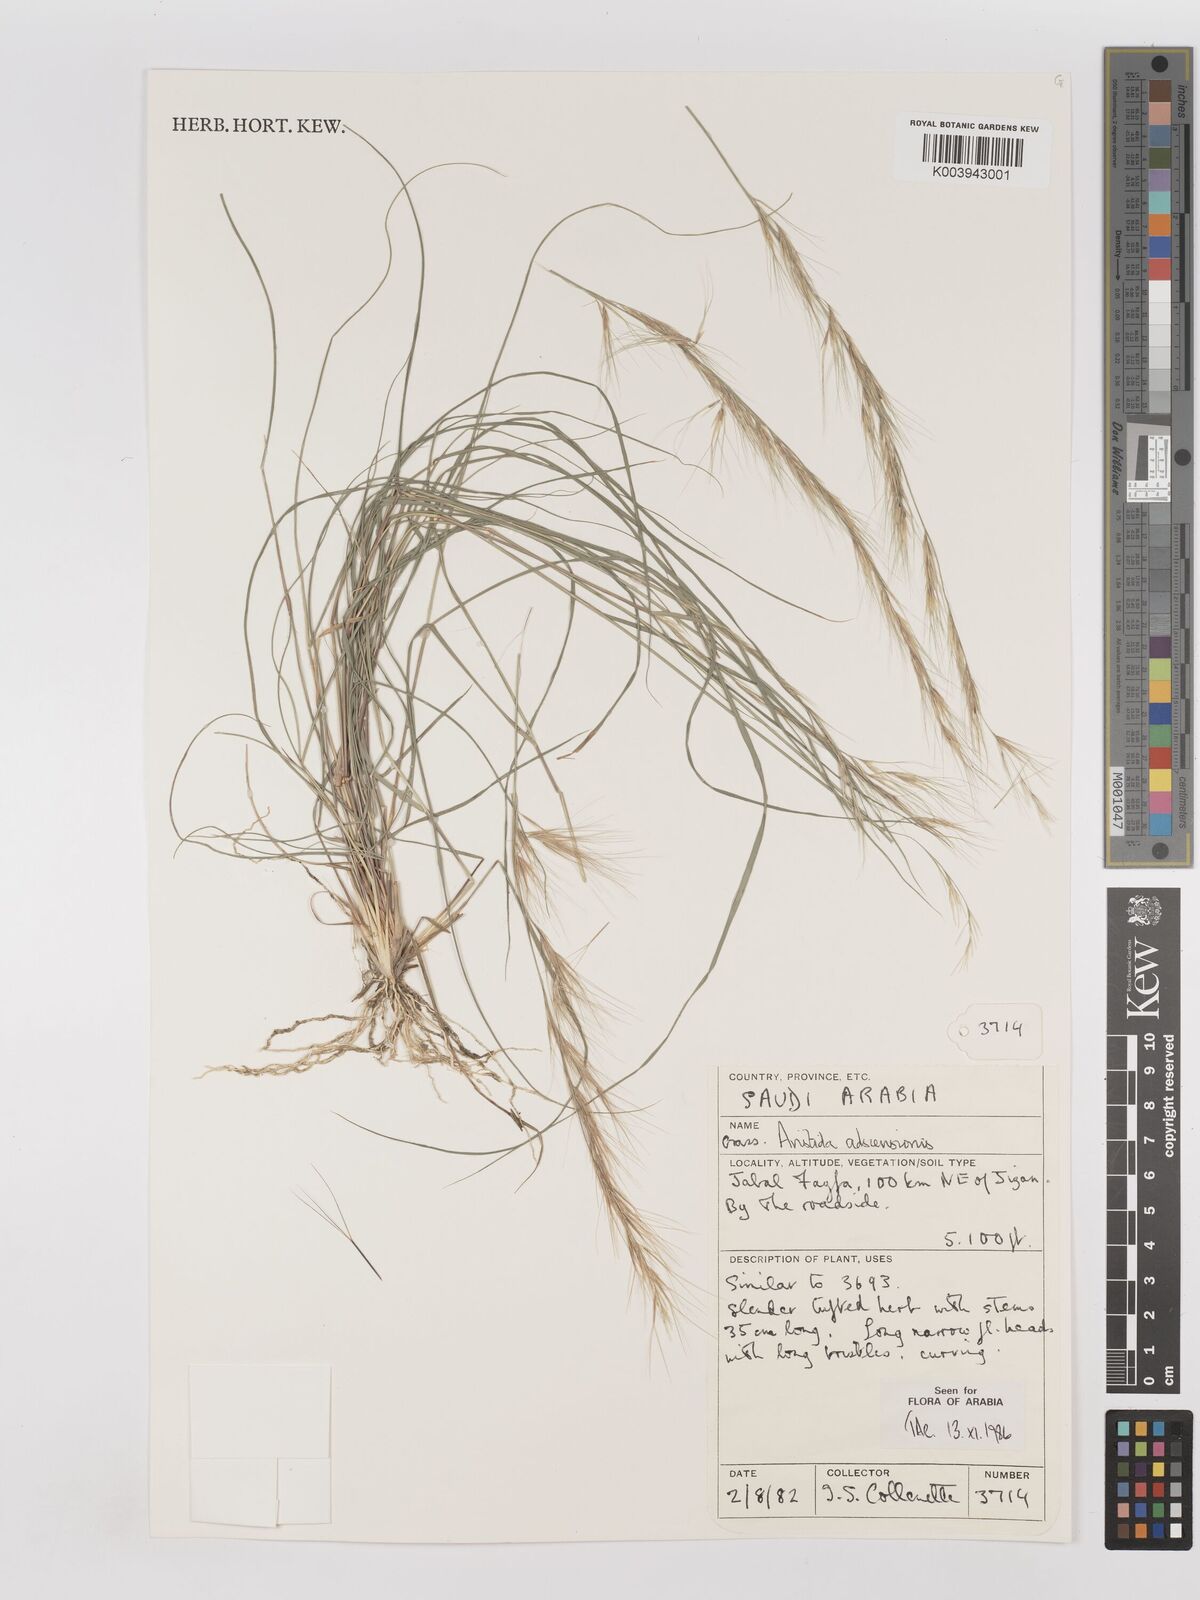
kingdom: Plantae
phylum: Tracheophyta
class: Liliopsida
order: Poales
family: Poaceae
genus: Aristida
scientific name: Aristida adscensionis
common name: Sixweeks threeawn
